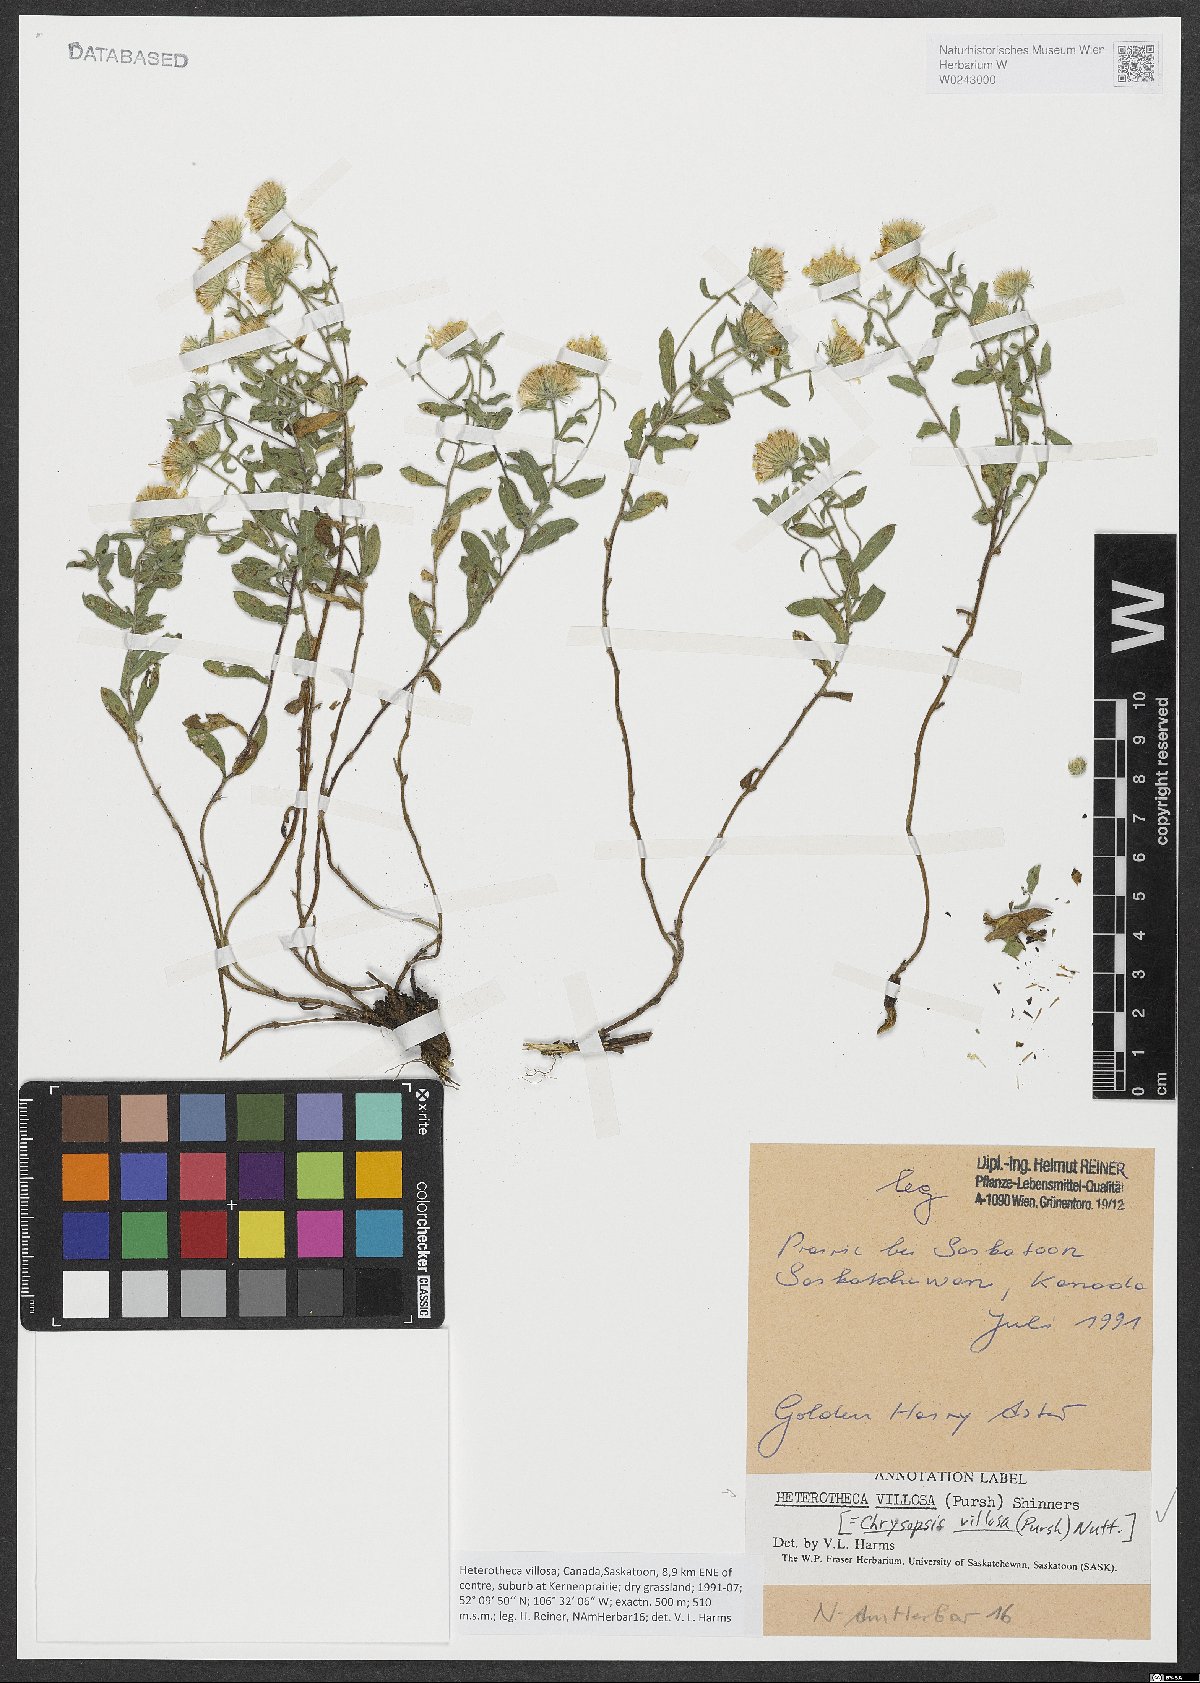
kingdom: Plantae
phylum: Tracheophyta
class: Magnoliopsida
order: Asterales
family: Asteraceae
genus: Heterotheca
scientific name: Heterotheca villosa
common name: Hairy false goldenaster
